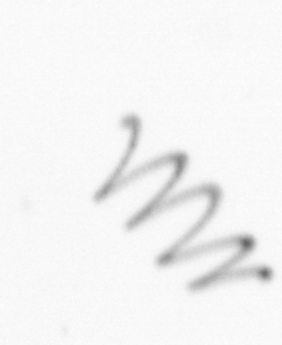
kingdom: Chromista
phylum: Ochrophyta
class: Bacillariophyceae
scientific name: Bacillariophyceae
